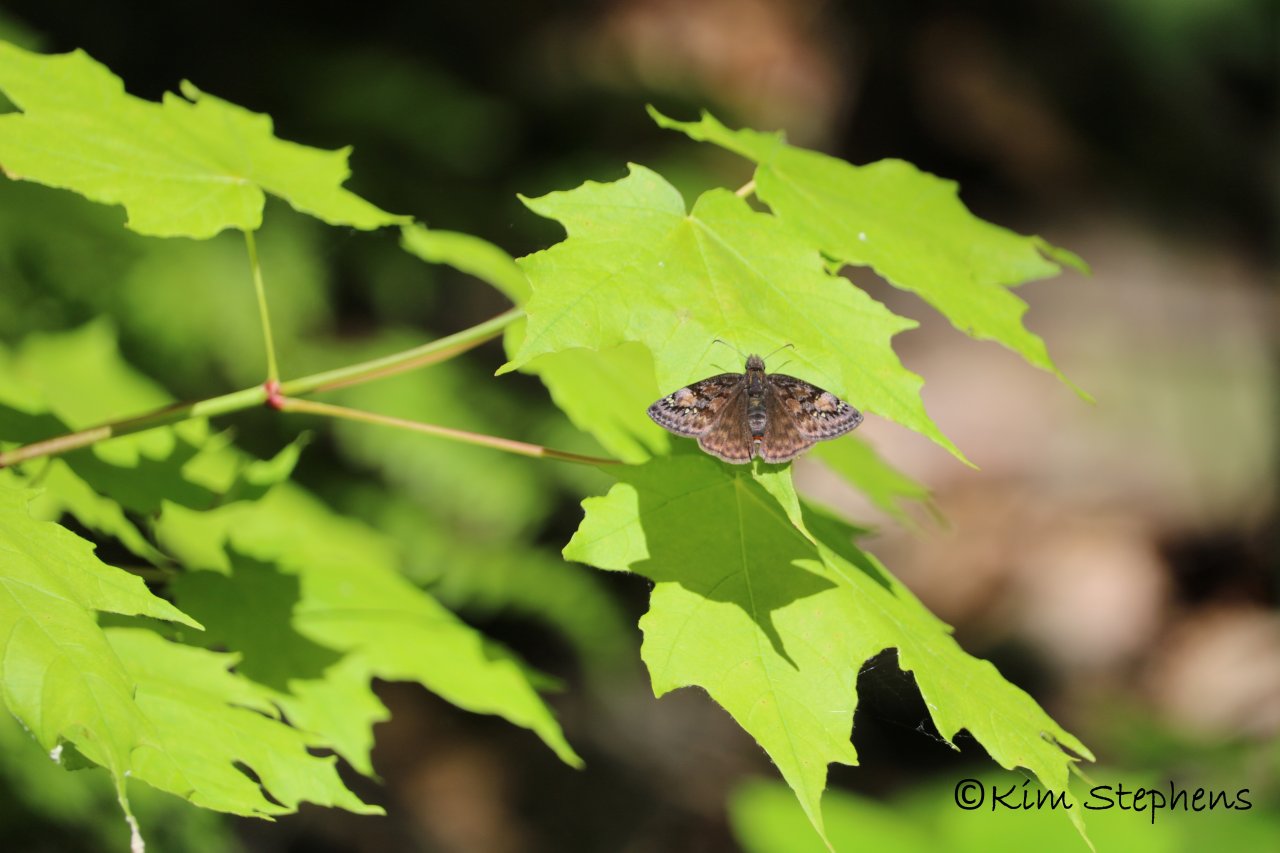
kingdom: Animalia
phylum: Arthropoda
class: Insecta
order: Lepidoptera
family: Hesperiidae
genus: Gesta
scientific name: Gesta
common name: Juvenal's Duskywing
